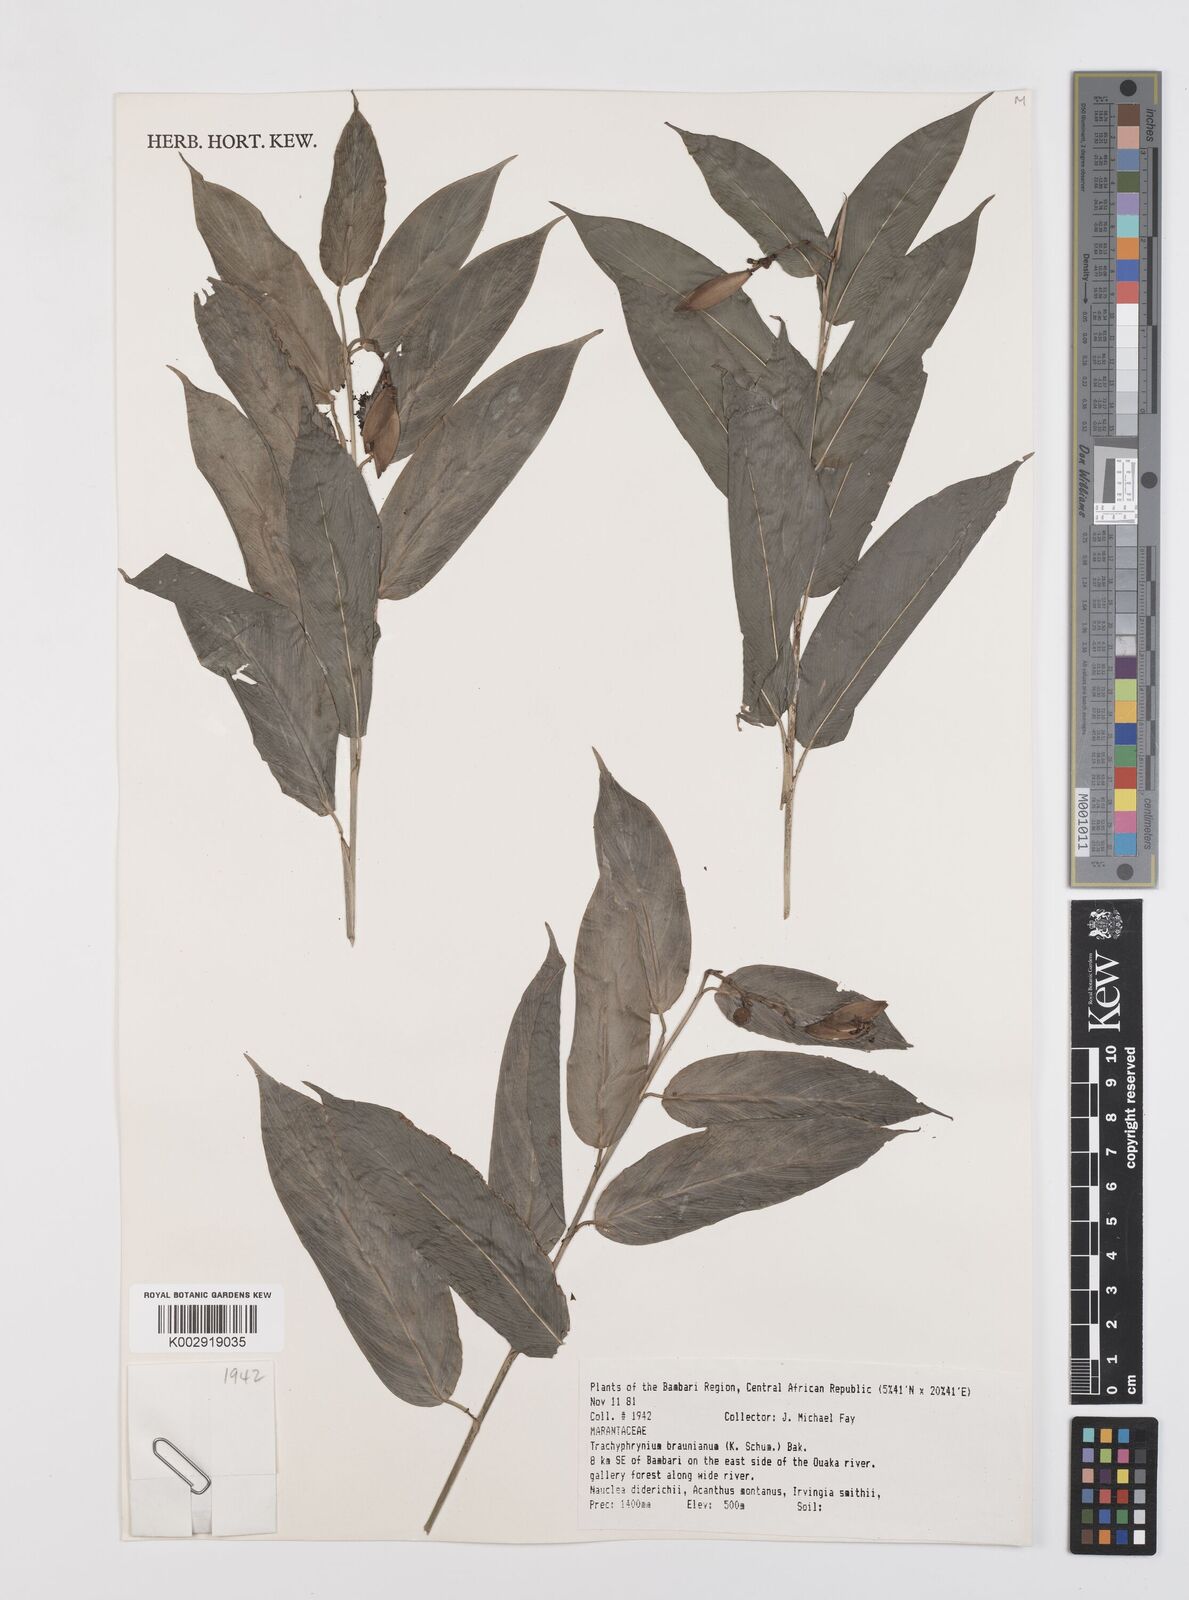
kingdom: Plantae
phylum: Tracheophyta
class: Liliopsida
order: Zingiberales
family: Marantaceae
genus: Trachyphrynium
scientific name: Trachyphrynium braunianum
